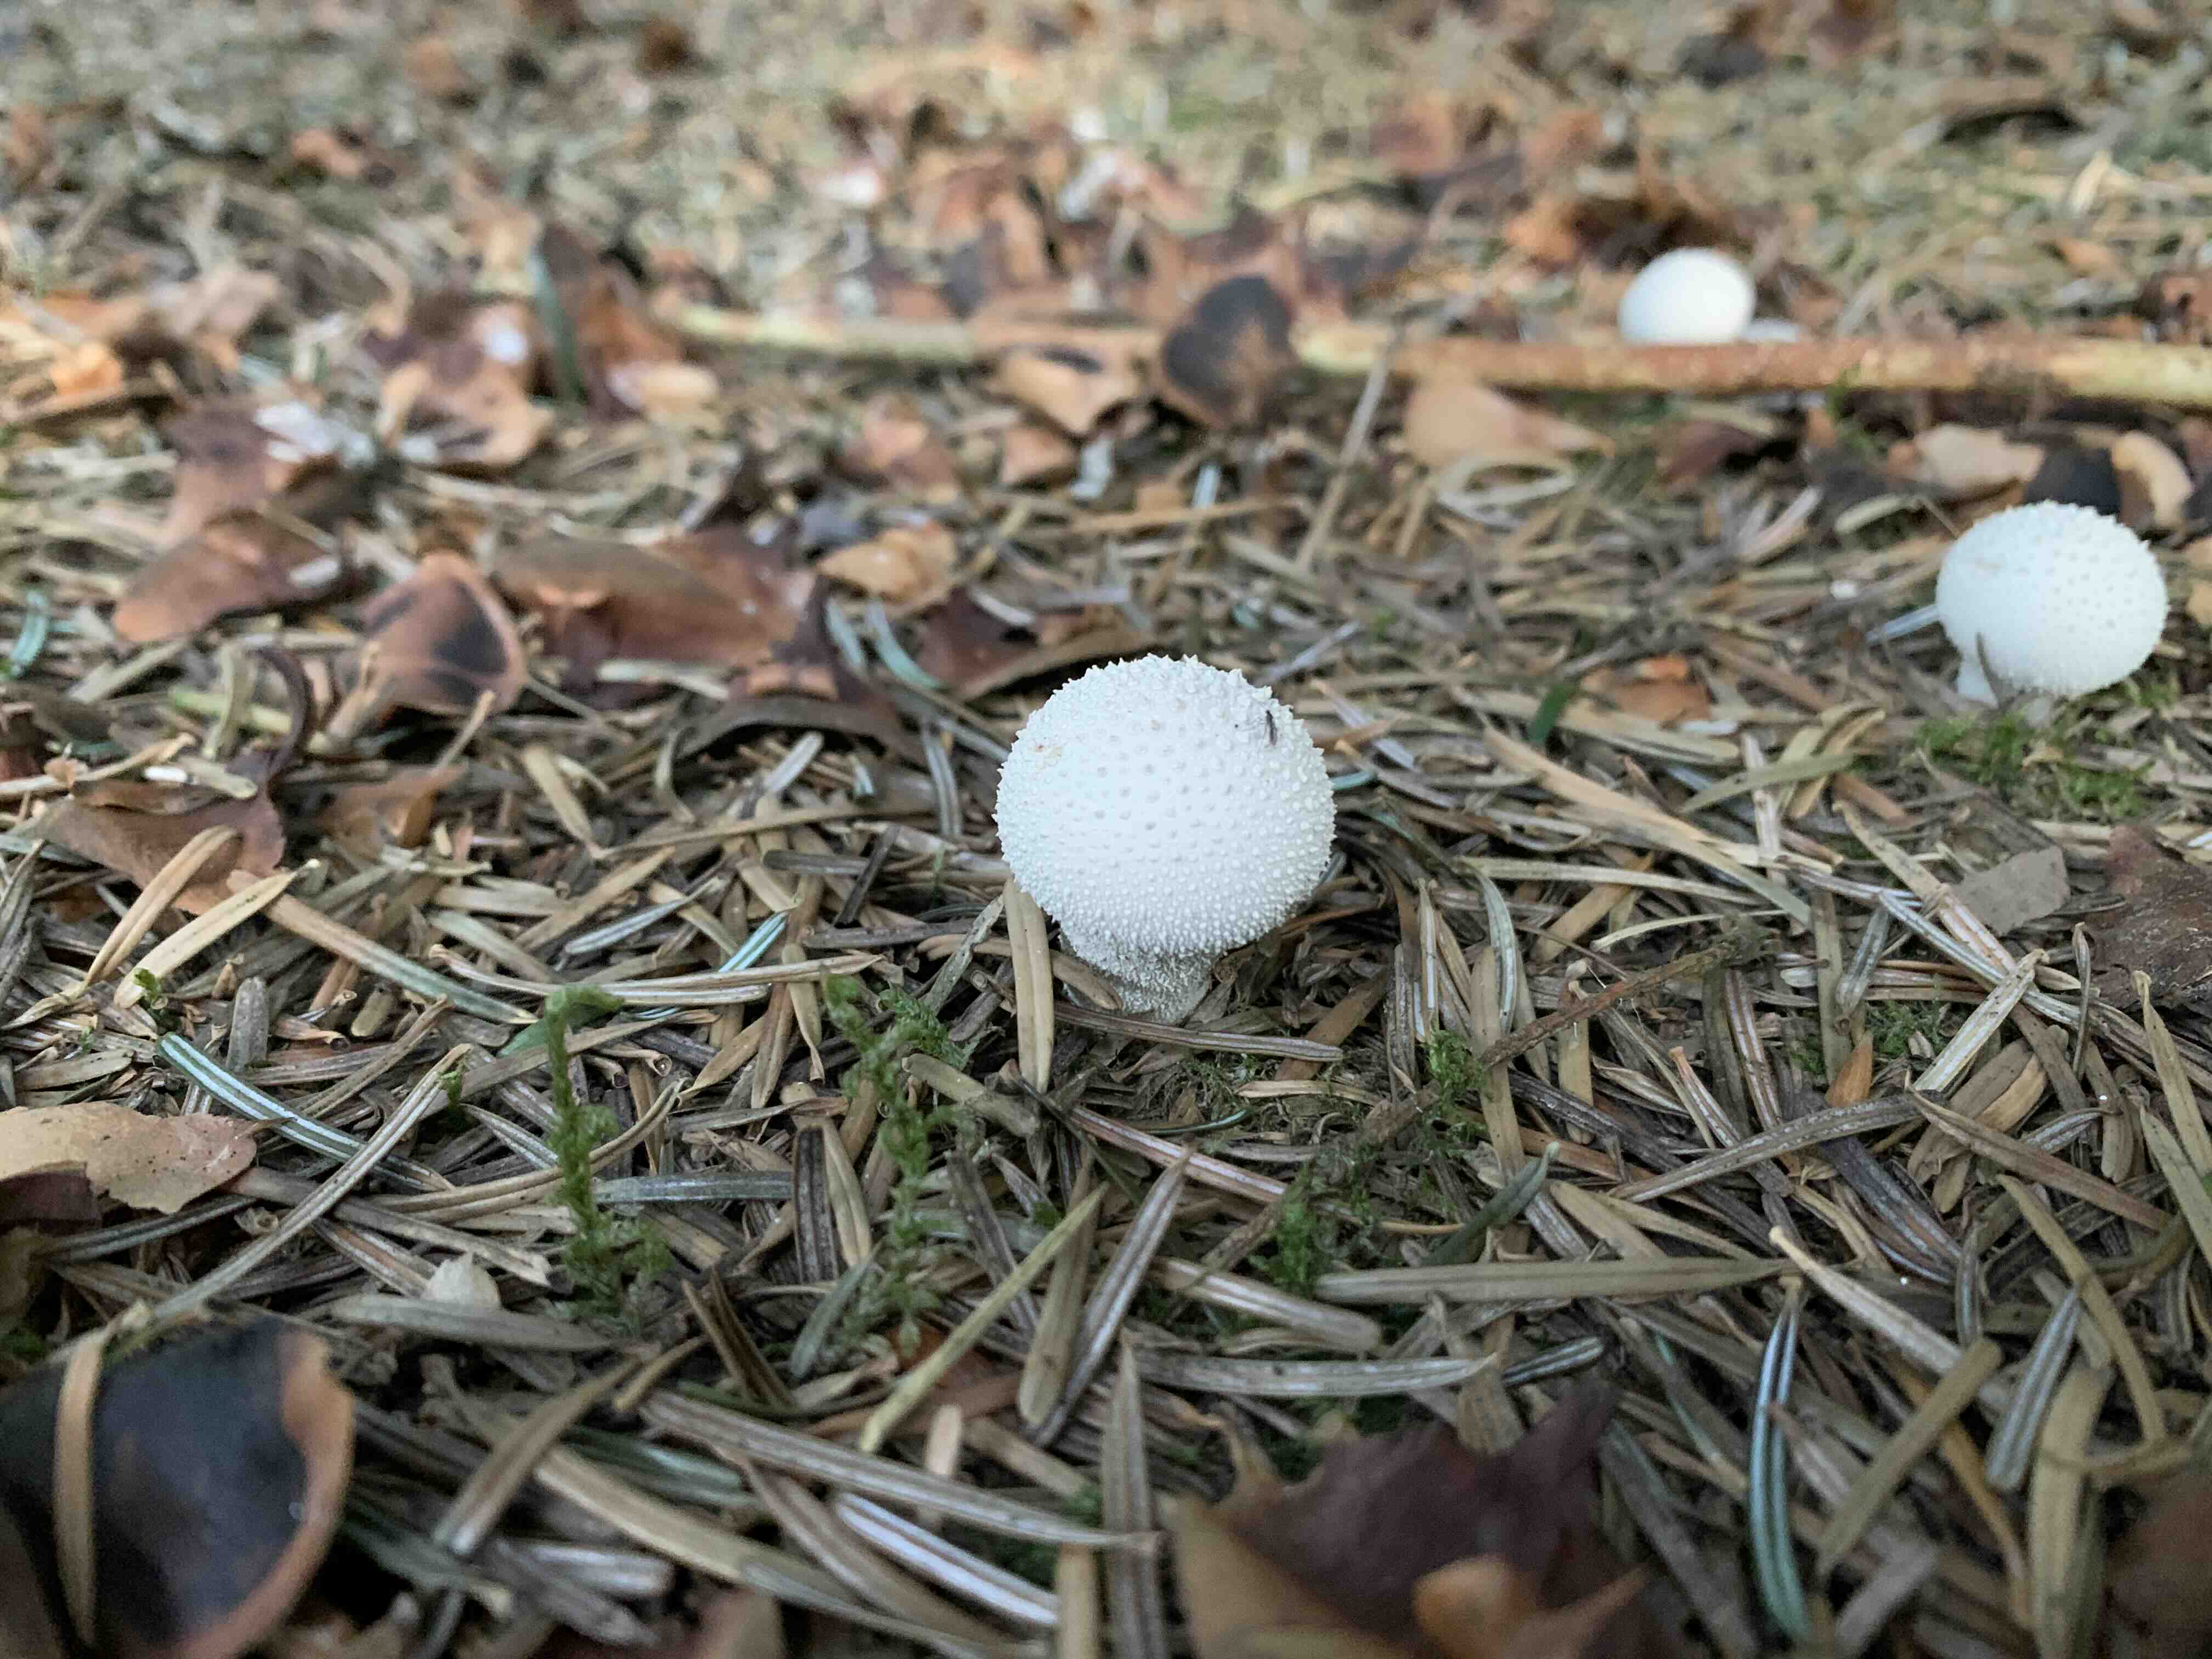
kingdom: Fungi
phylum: Basidiomycota
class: Agaricomycetes
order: Agaricales
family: Lycoperdaceae
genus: Lycoperdon
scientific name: Lycoperdon perlatum
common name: krystal-støvbold
